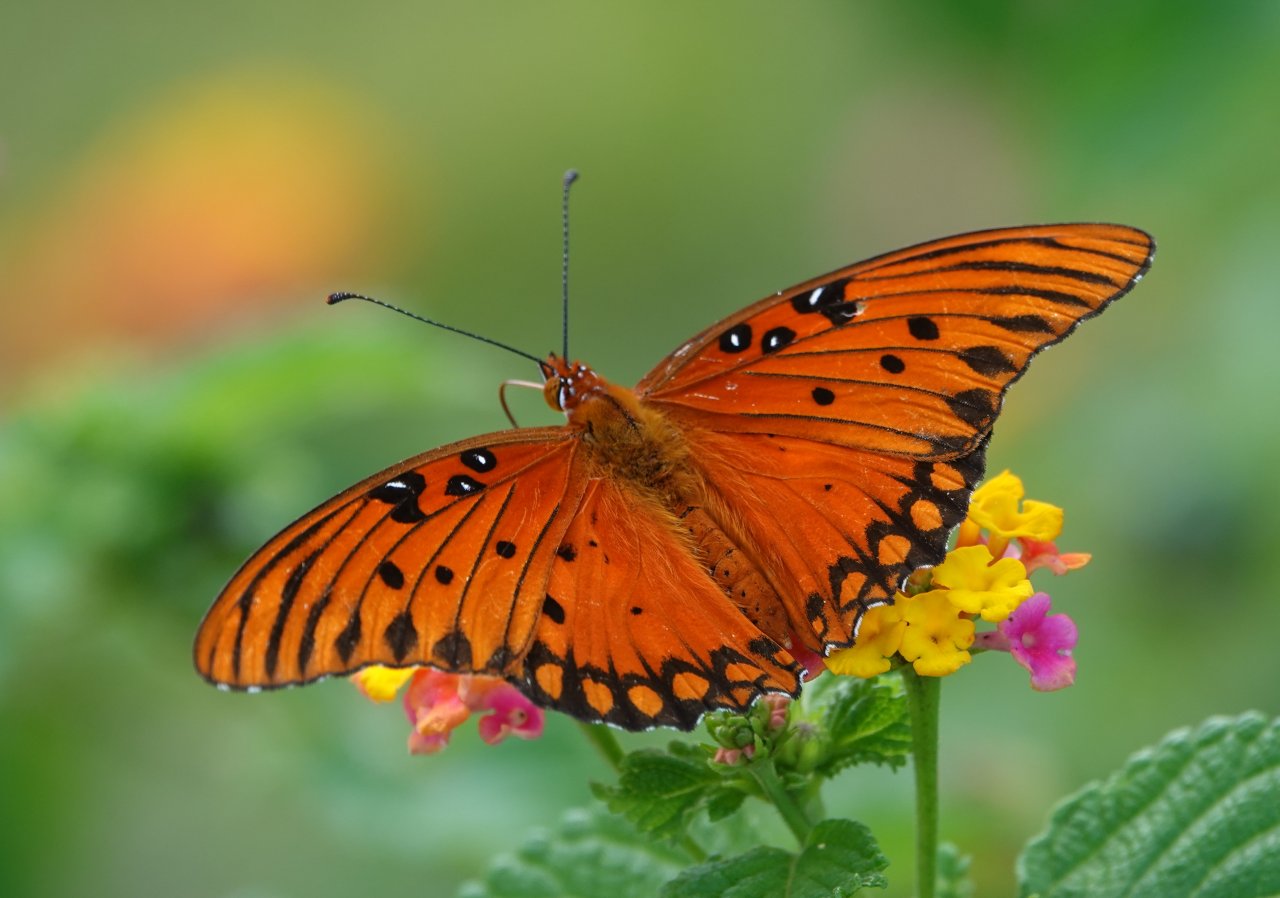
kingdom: Animalia
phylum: Arthropoda
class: Insecta
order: Lepidoptera
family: Nymphalidae
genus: Dione
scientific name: Dione vanillae
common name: Gulf Fritillary
